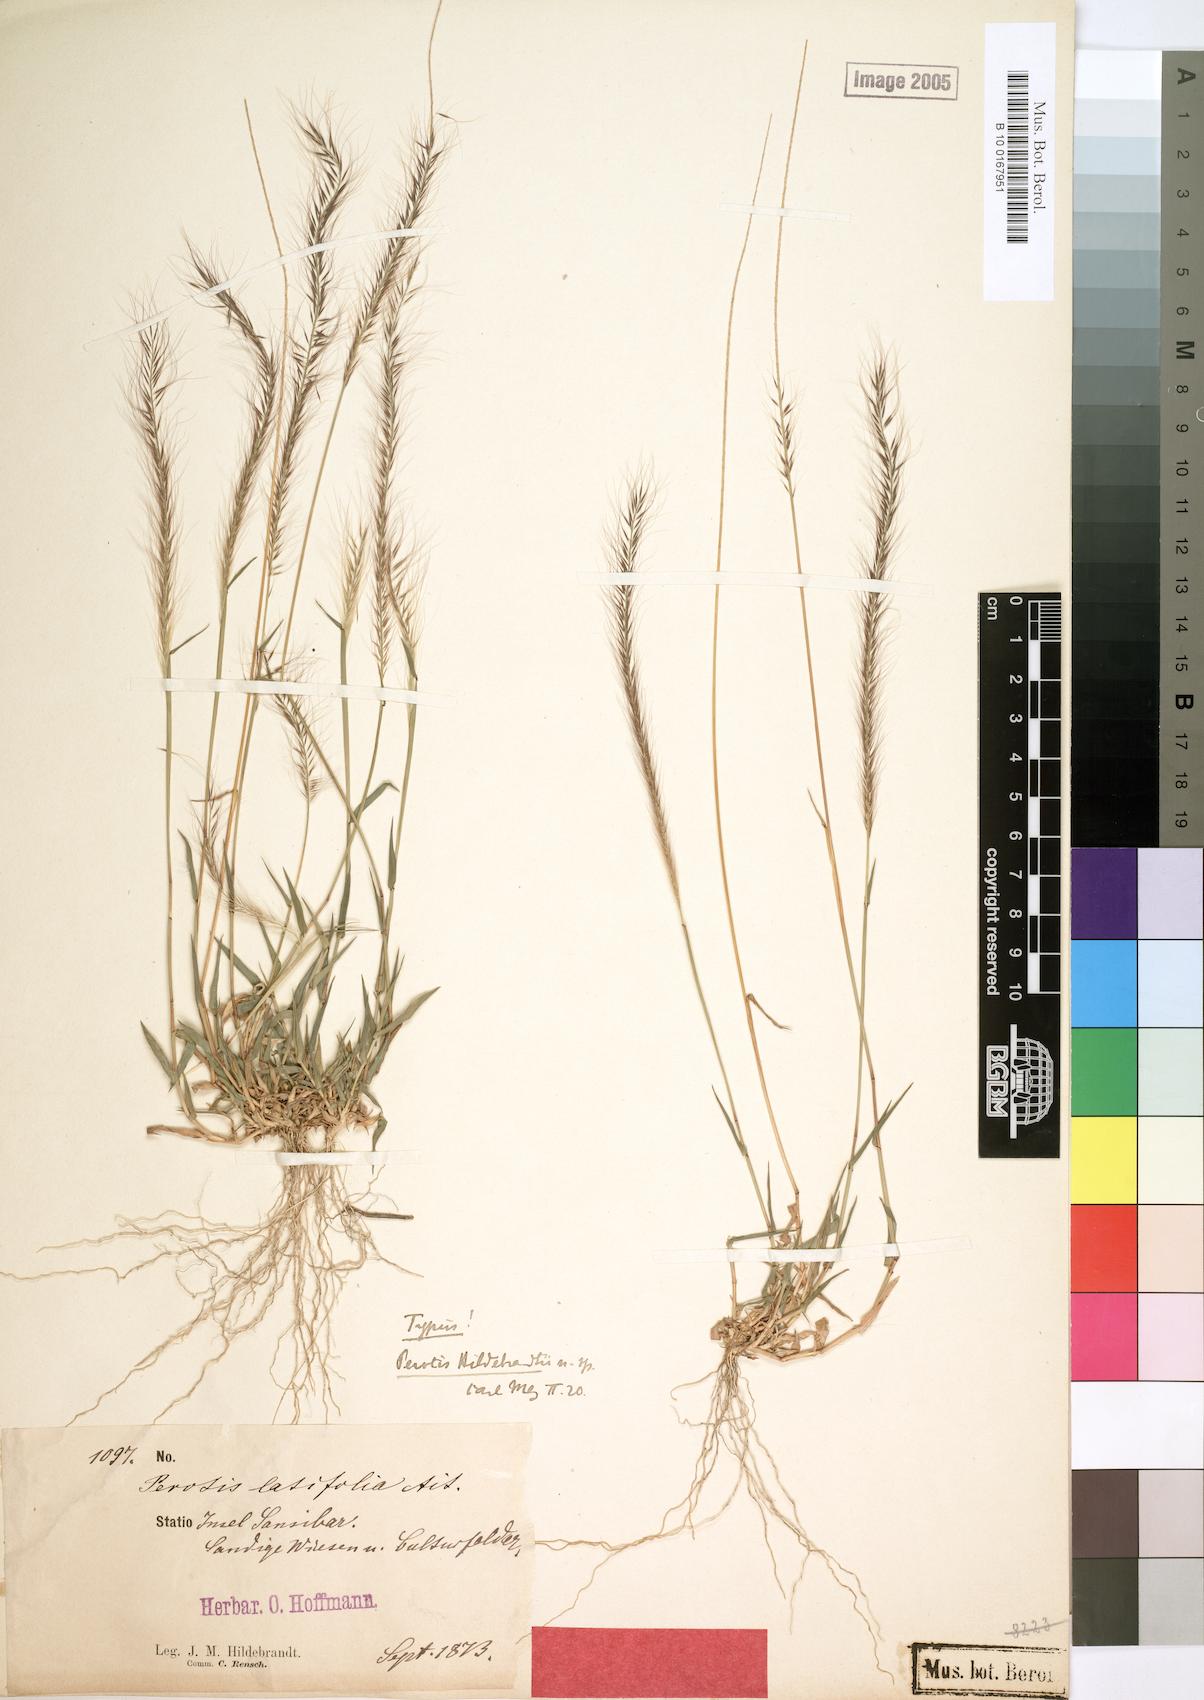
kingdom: Plantae
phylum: Tracheophyta
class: Liliopsida
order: Poales
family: Poaceae
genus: Perotis
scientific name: Perotis hildebrandtii
